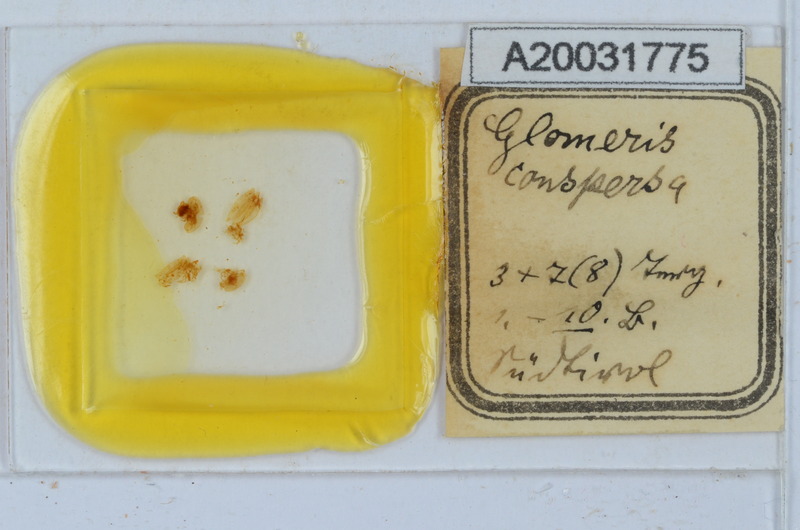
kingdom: Animalia
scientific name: Animalia
